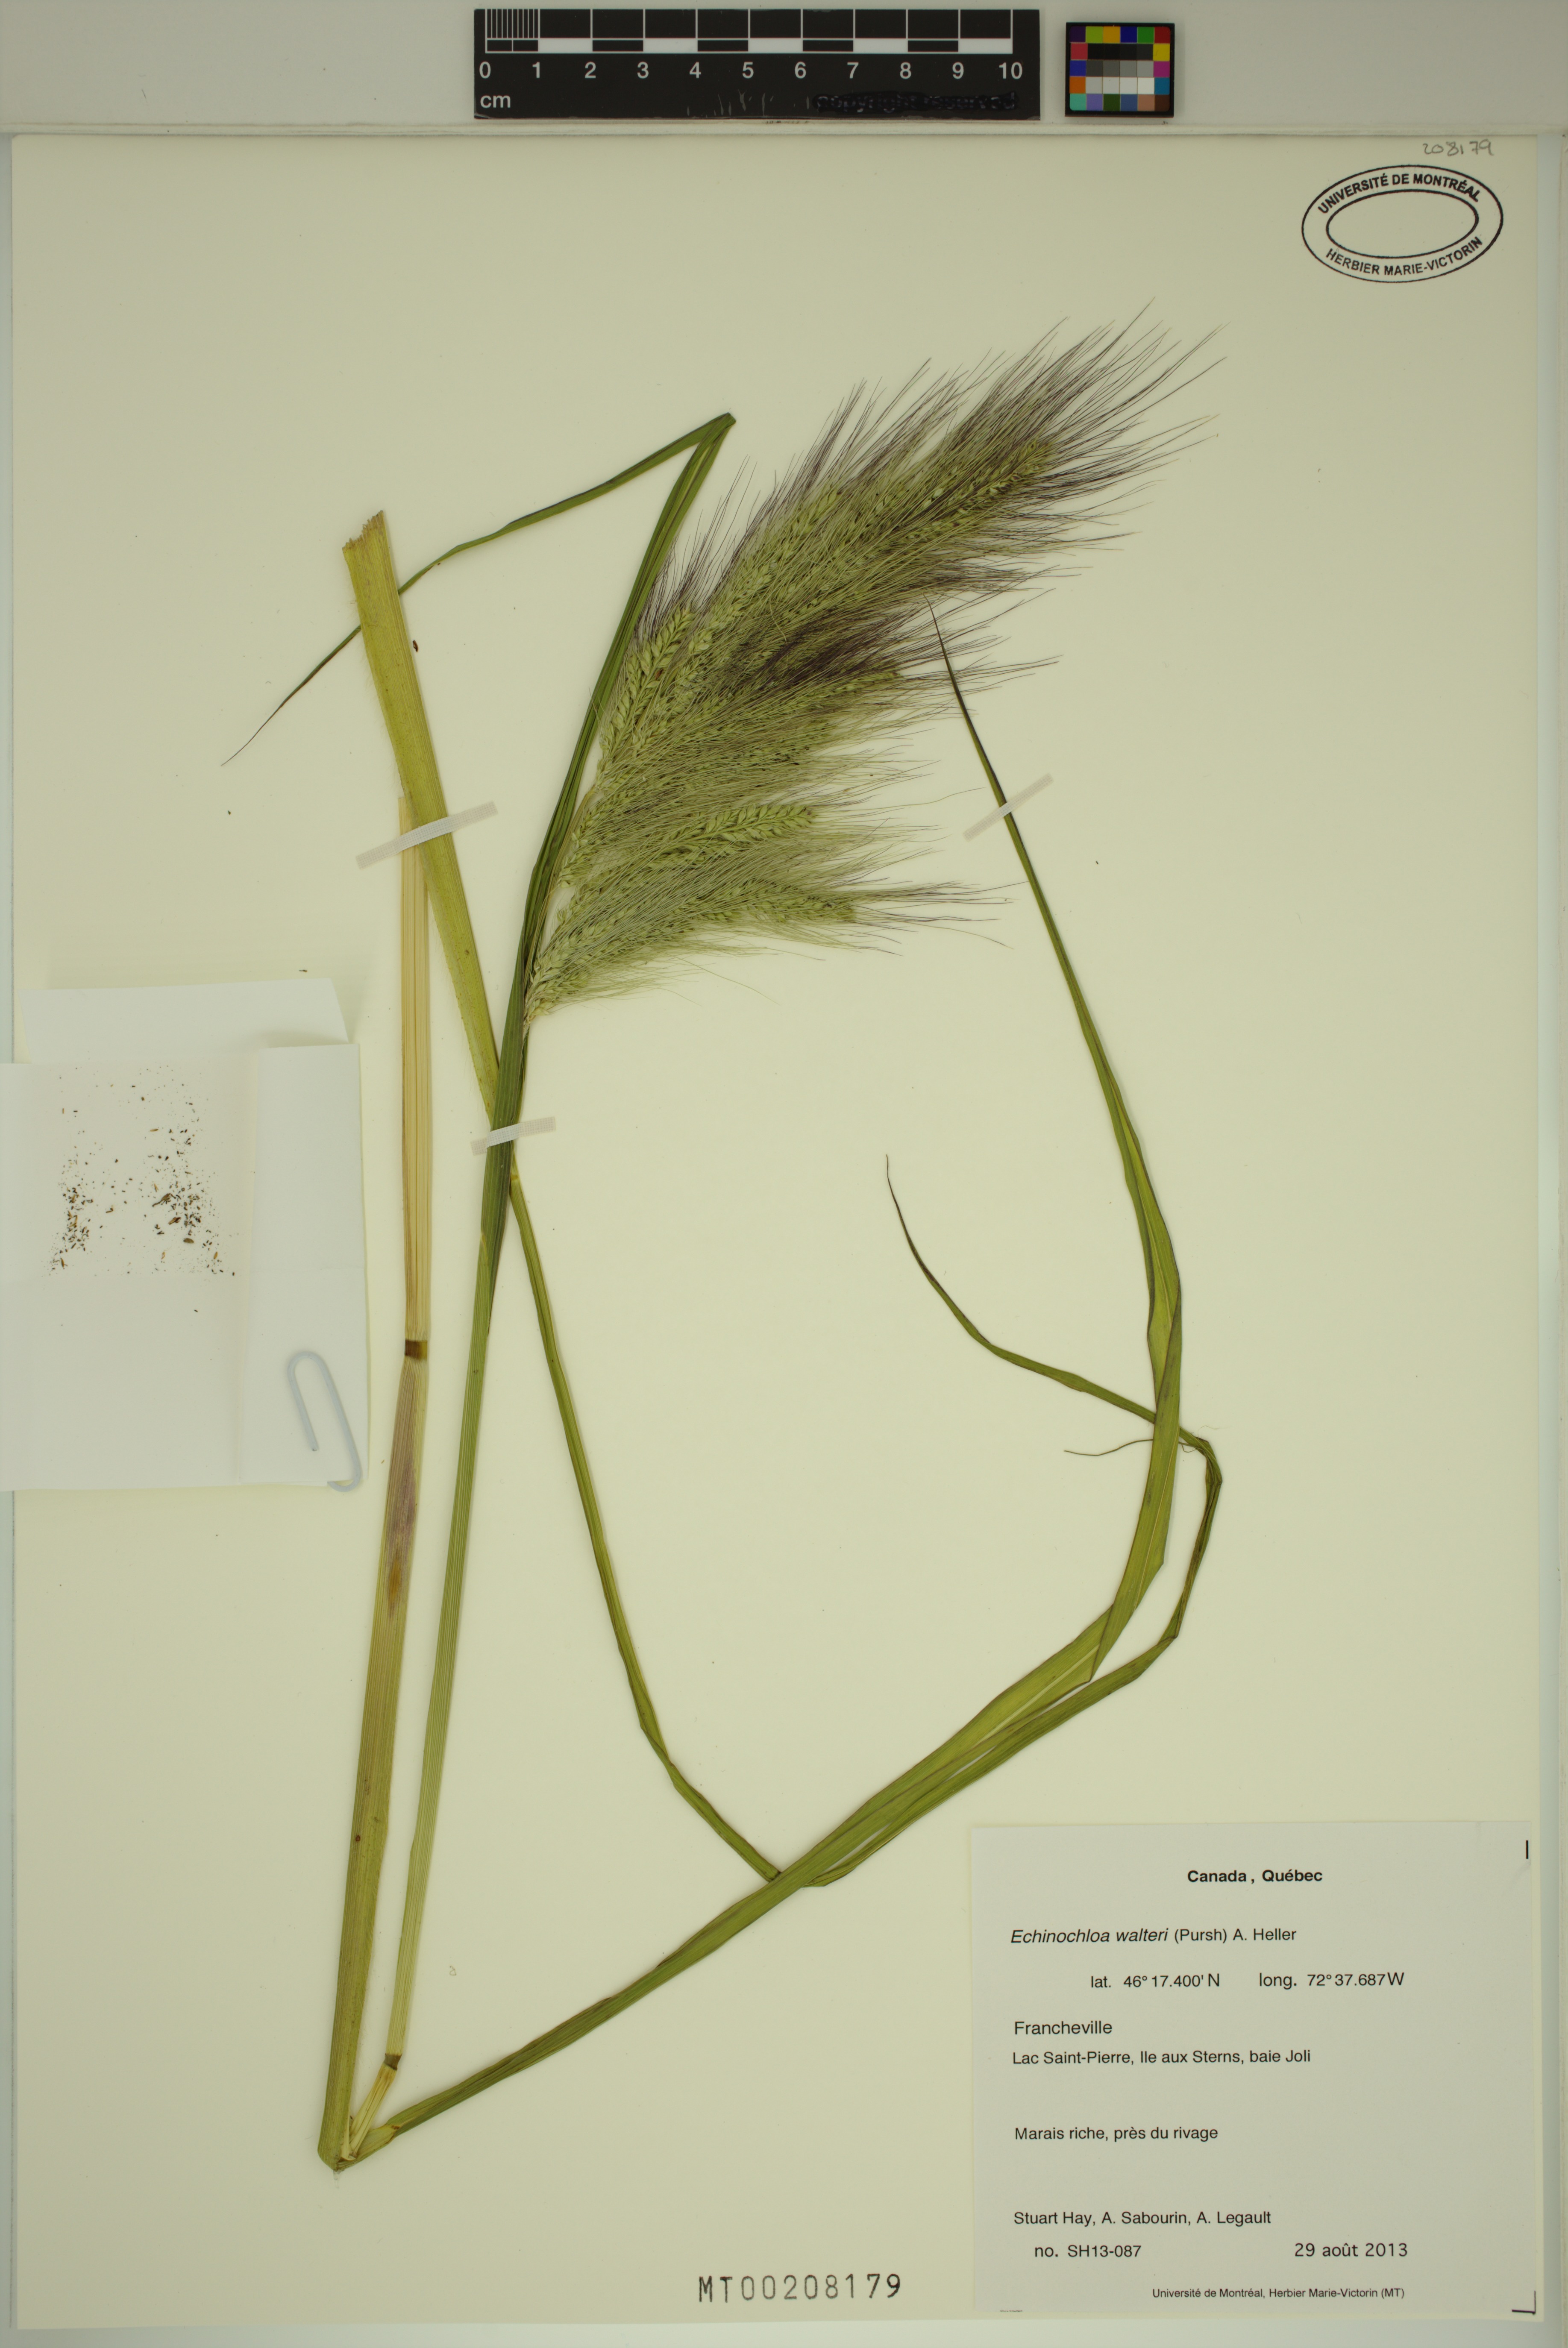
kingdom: Plantae
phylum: Tracheophyta
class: Liliopsida
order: Poales
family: Poaceae
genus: Echinochloa
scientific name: Echinochloa walteri
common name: Coast barnyard grass
